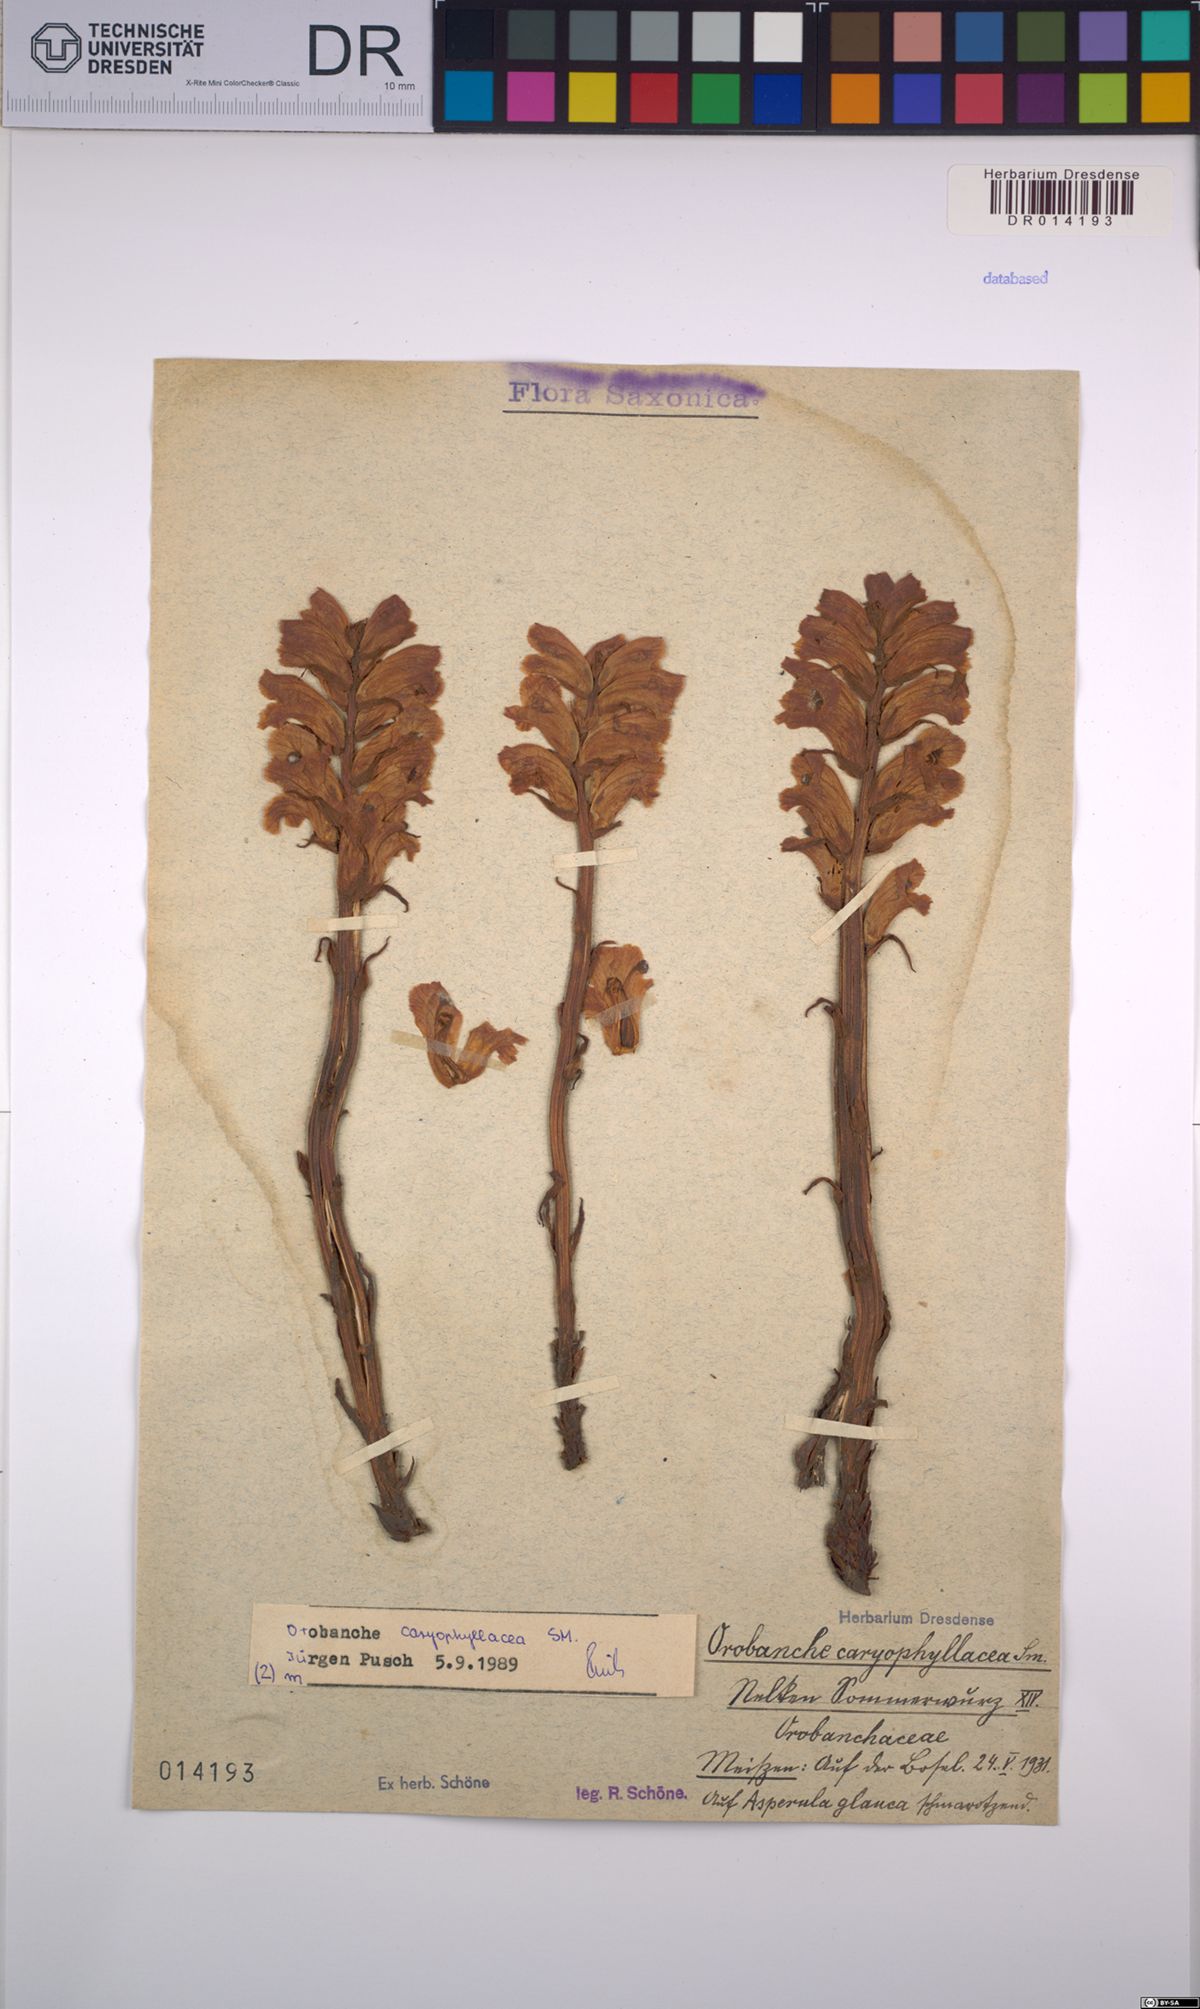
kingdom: Plantae
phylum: Tracheophyta
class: Magnoliopsida
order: Lamiales
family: Orobanchaceae
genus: Orobanche
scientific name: Orobanche caryophyllacea
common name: Bedstraw broomrape
